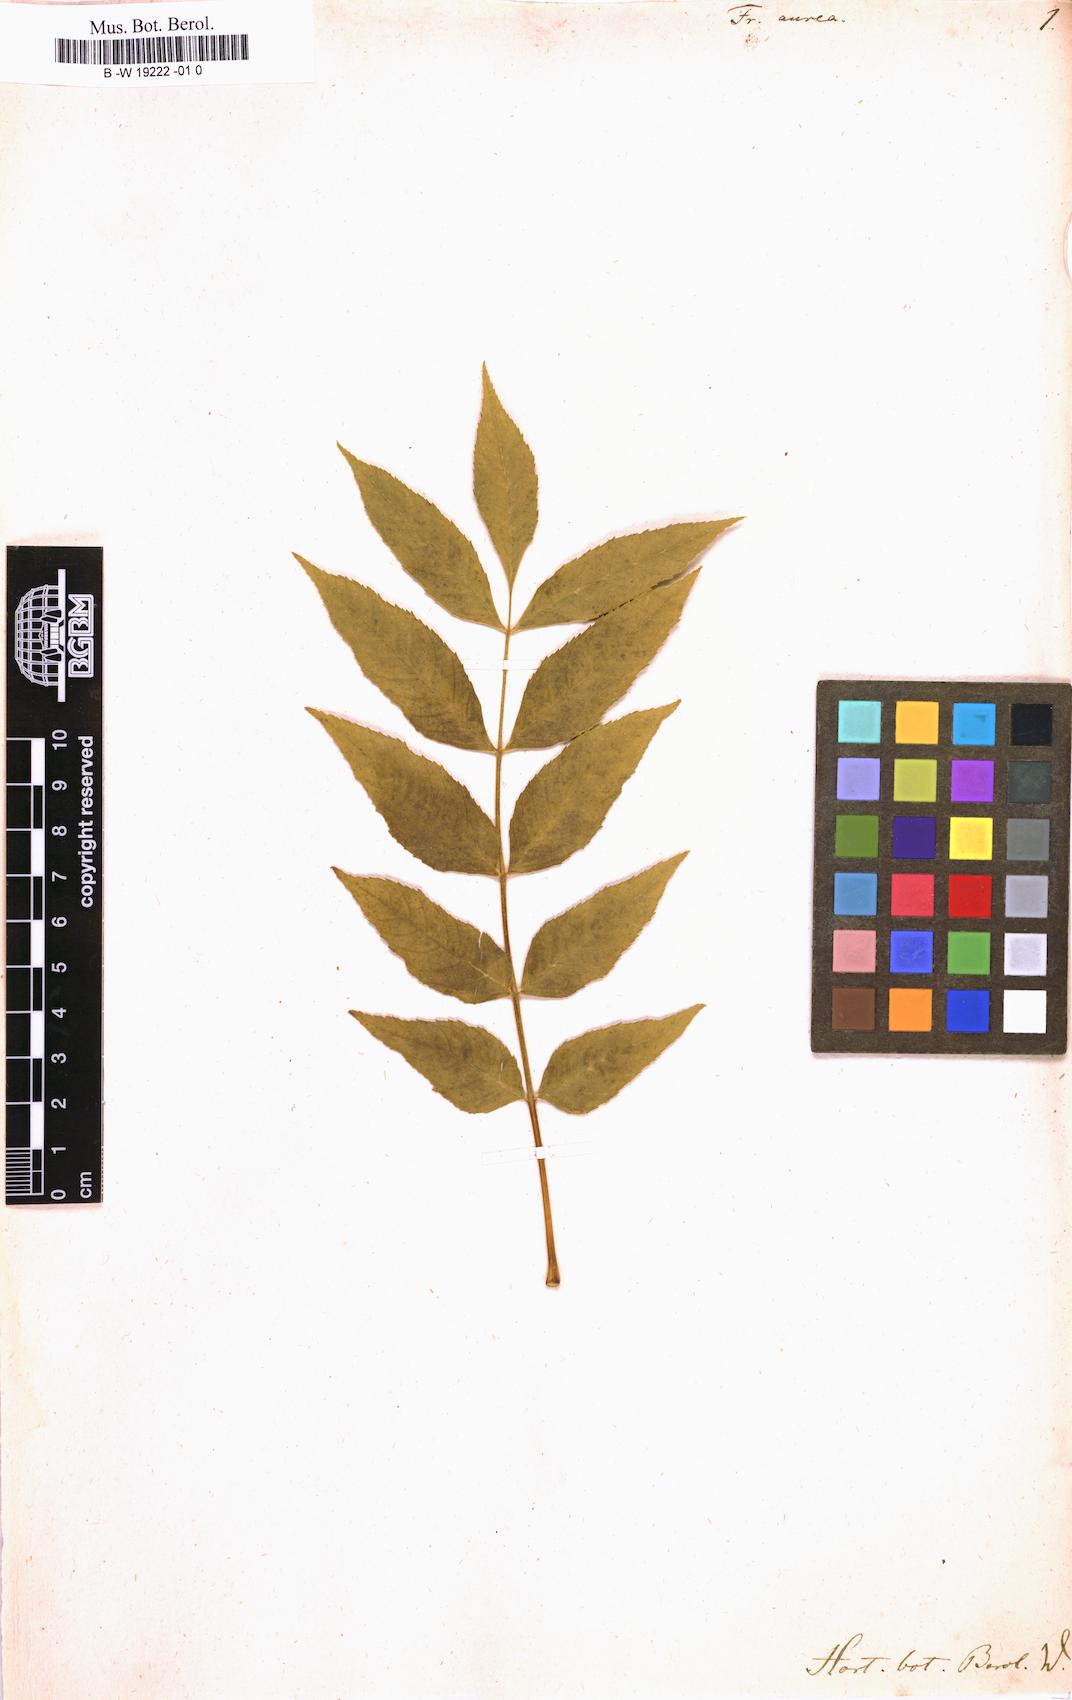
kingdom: Plantae
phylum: Tracheophyta
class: Magnoliopsida
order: Lamiales
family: Oleaceae
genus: Fraxinus
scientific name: Fraxinus excelsior
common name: European ash
